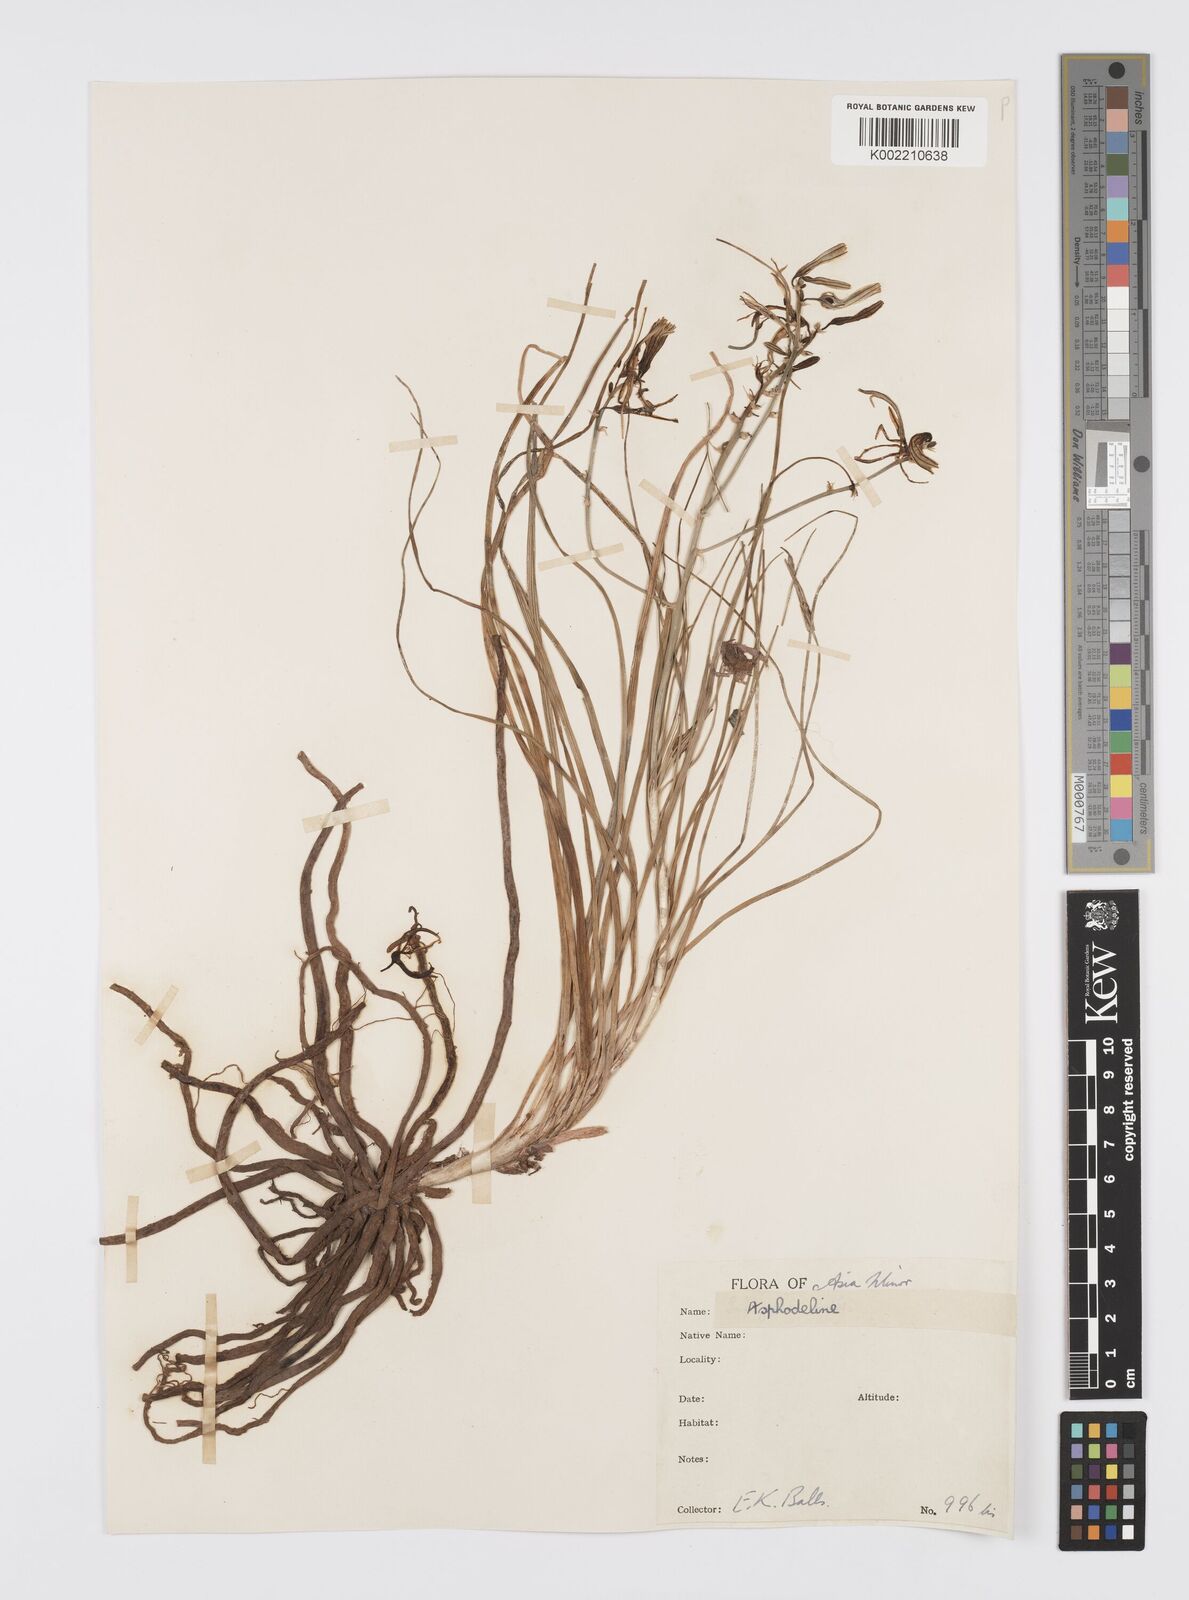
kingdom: Plantae
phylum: Tracheophyta
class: Liliopsida
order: Asparagales
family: Asphodelaceae
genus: Asphodeline
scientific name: Asphodeline brevicaulis
